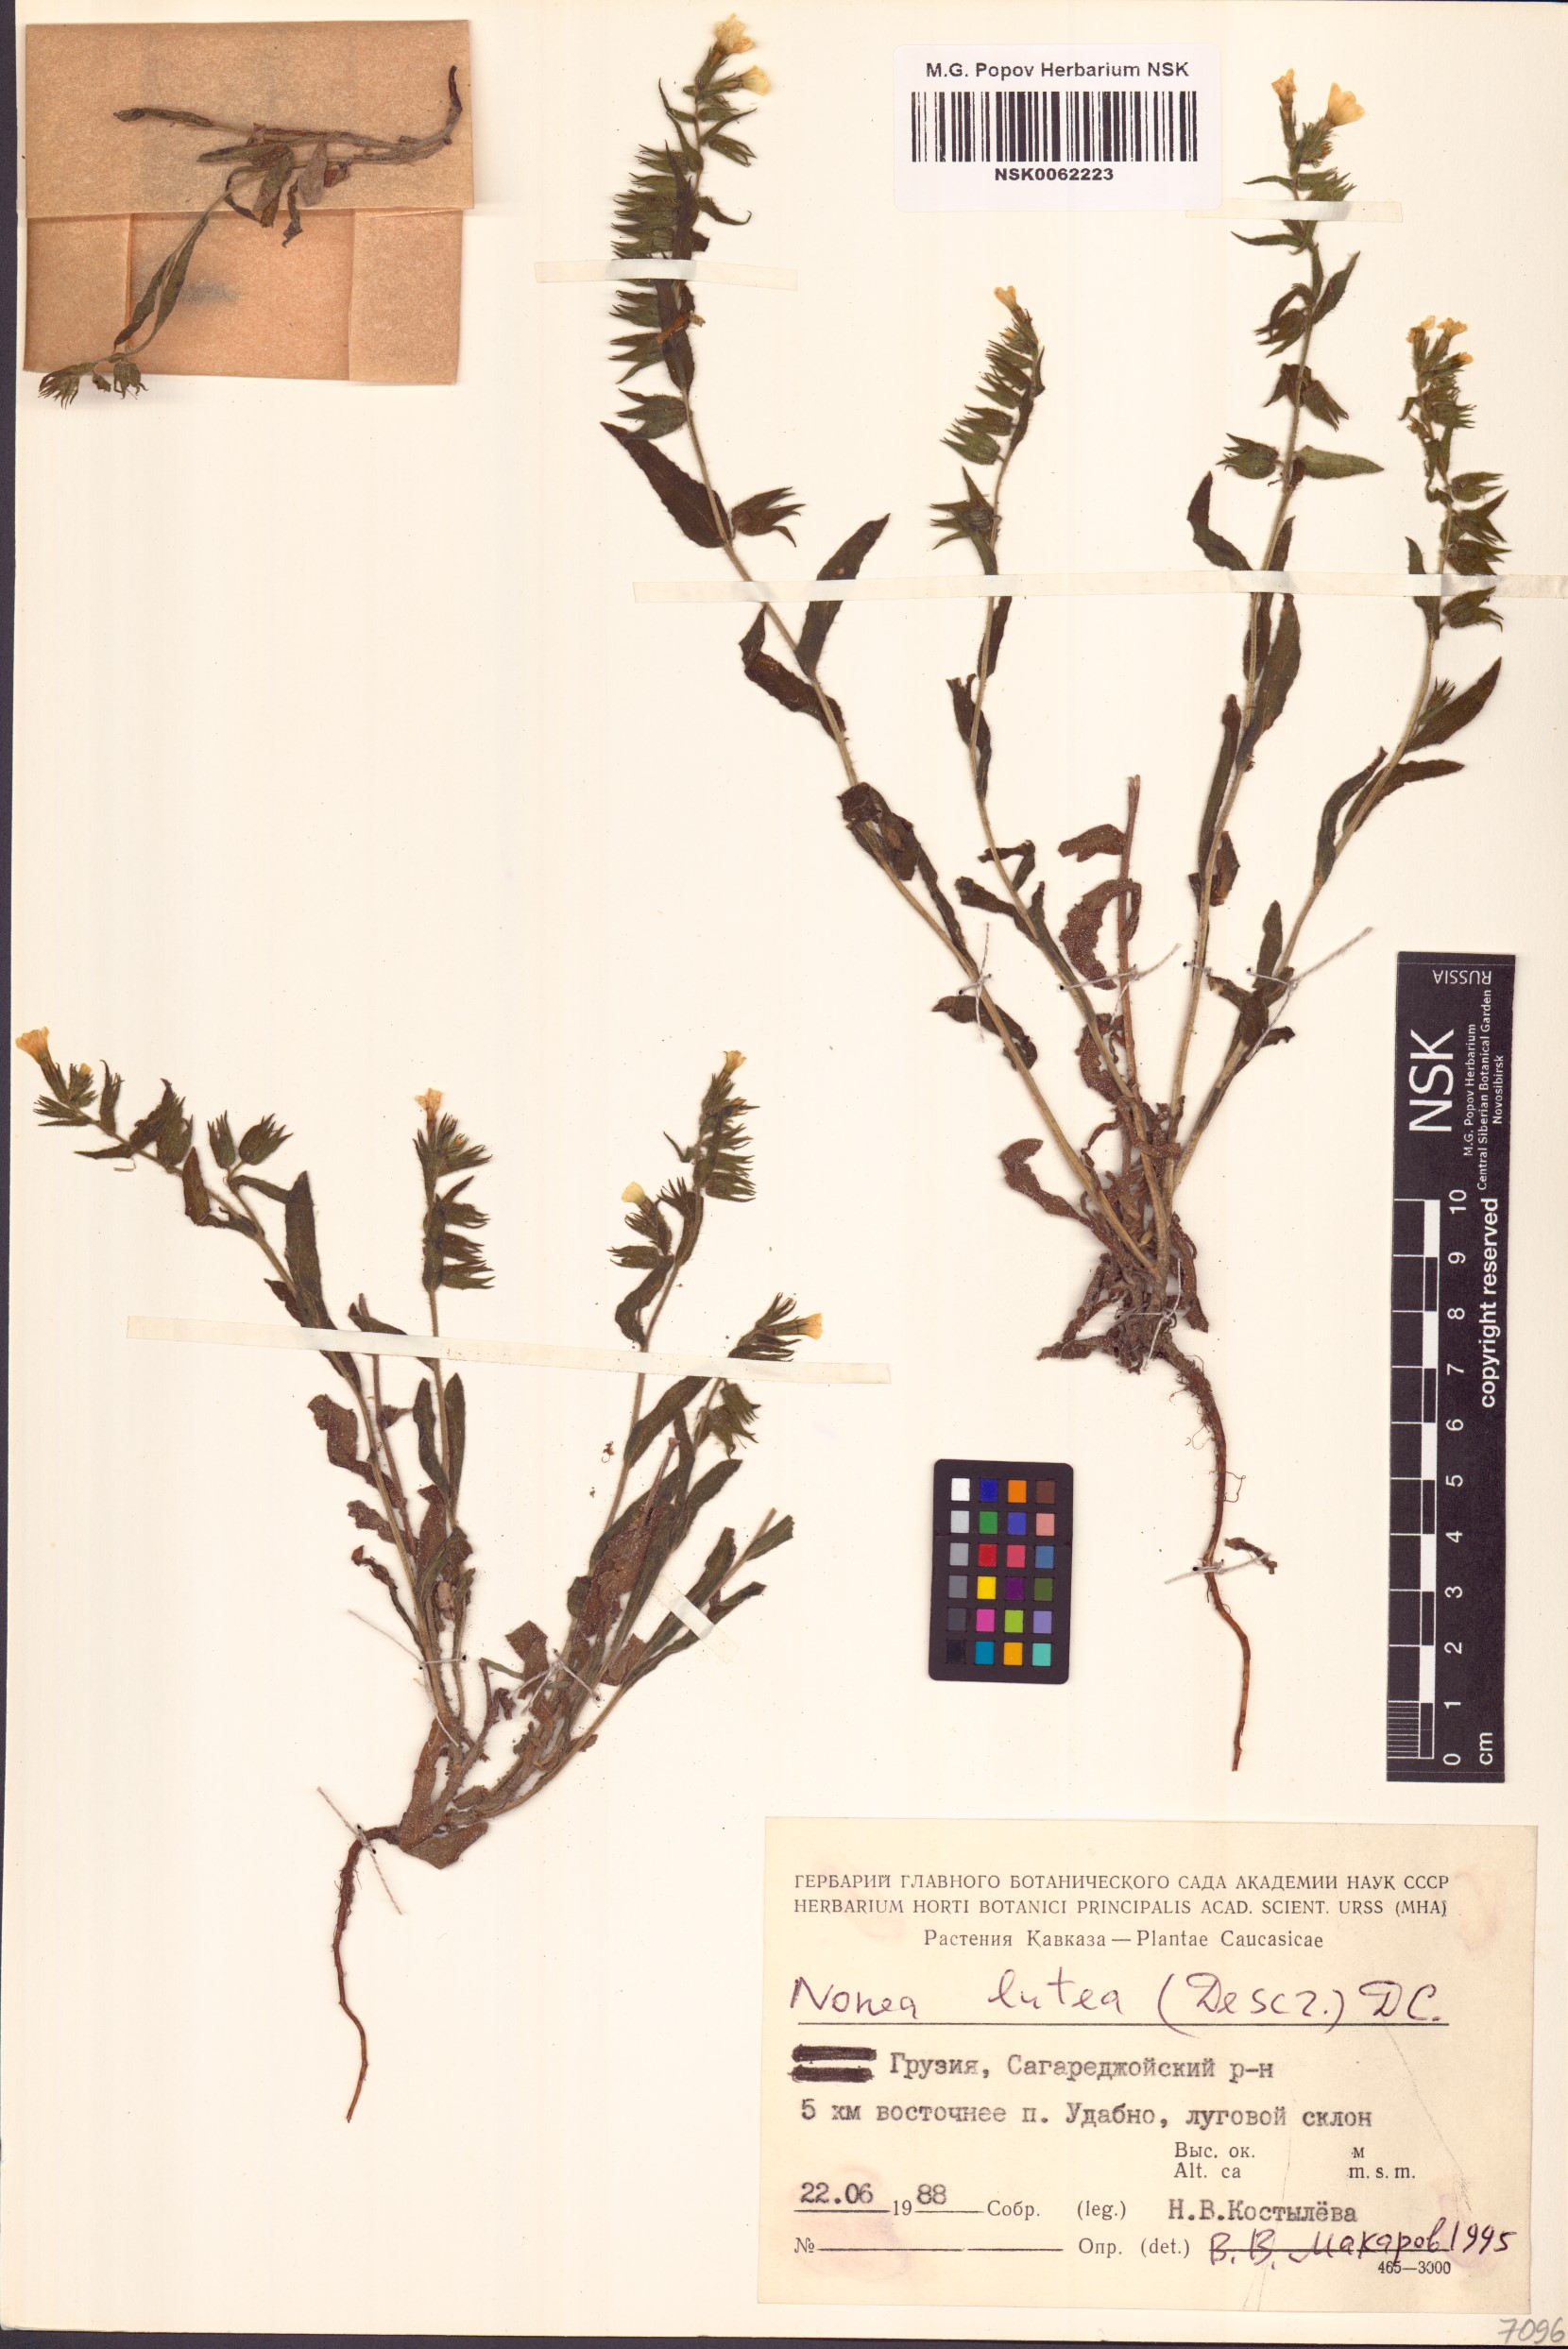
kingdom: Plantae
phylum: Tracheophyta
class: Magnoliopsida
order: Boraginales
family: Boraginaceae
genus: Nonea
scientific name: Nonea lutea
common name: Yellow nonea
